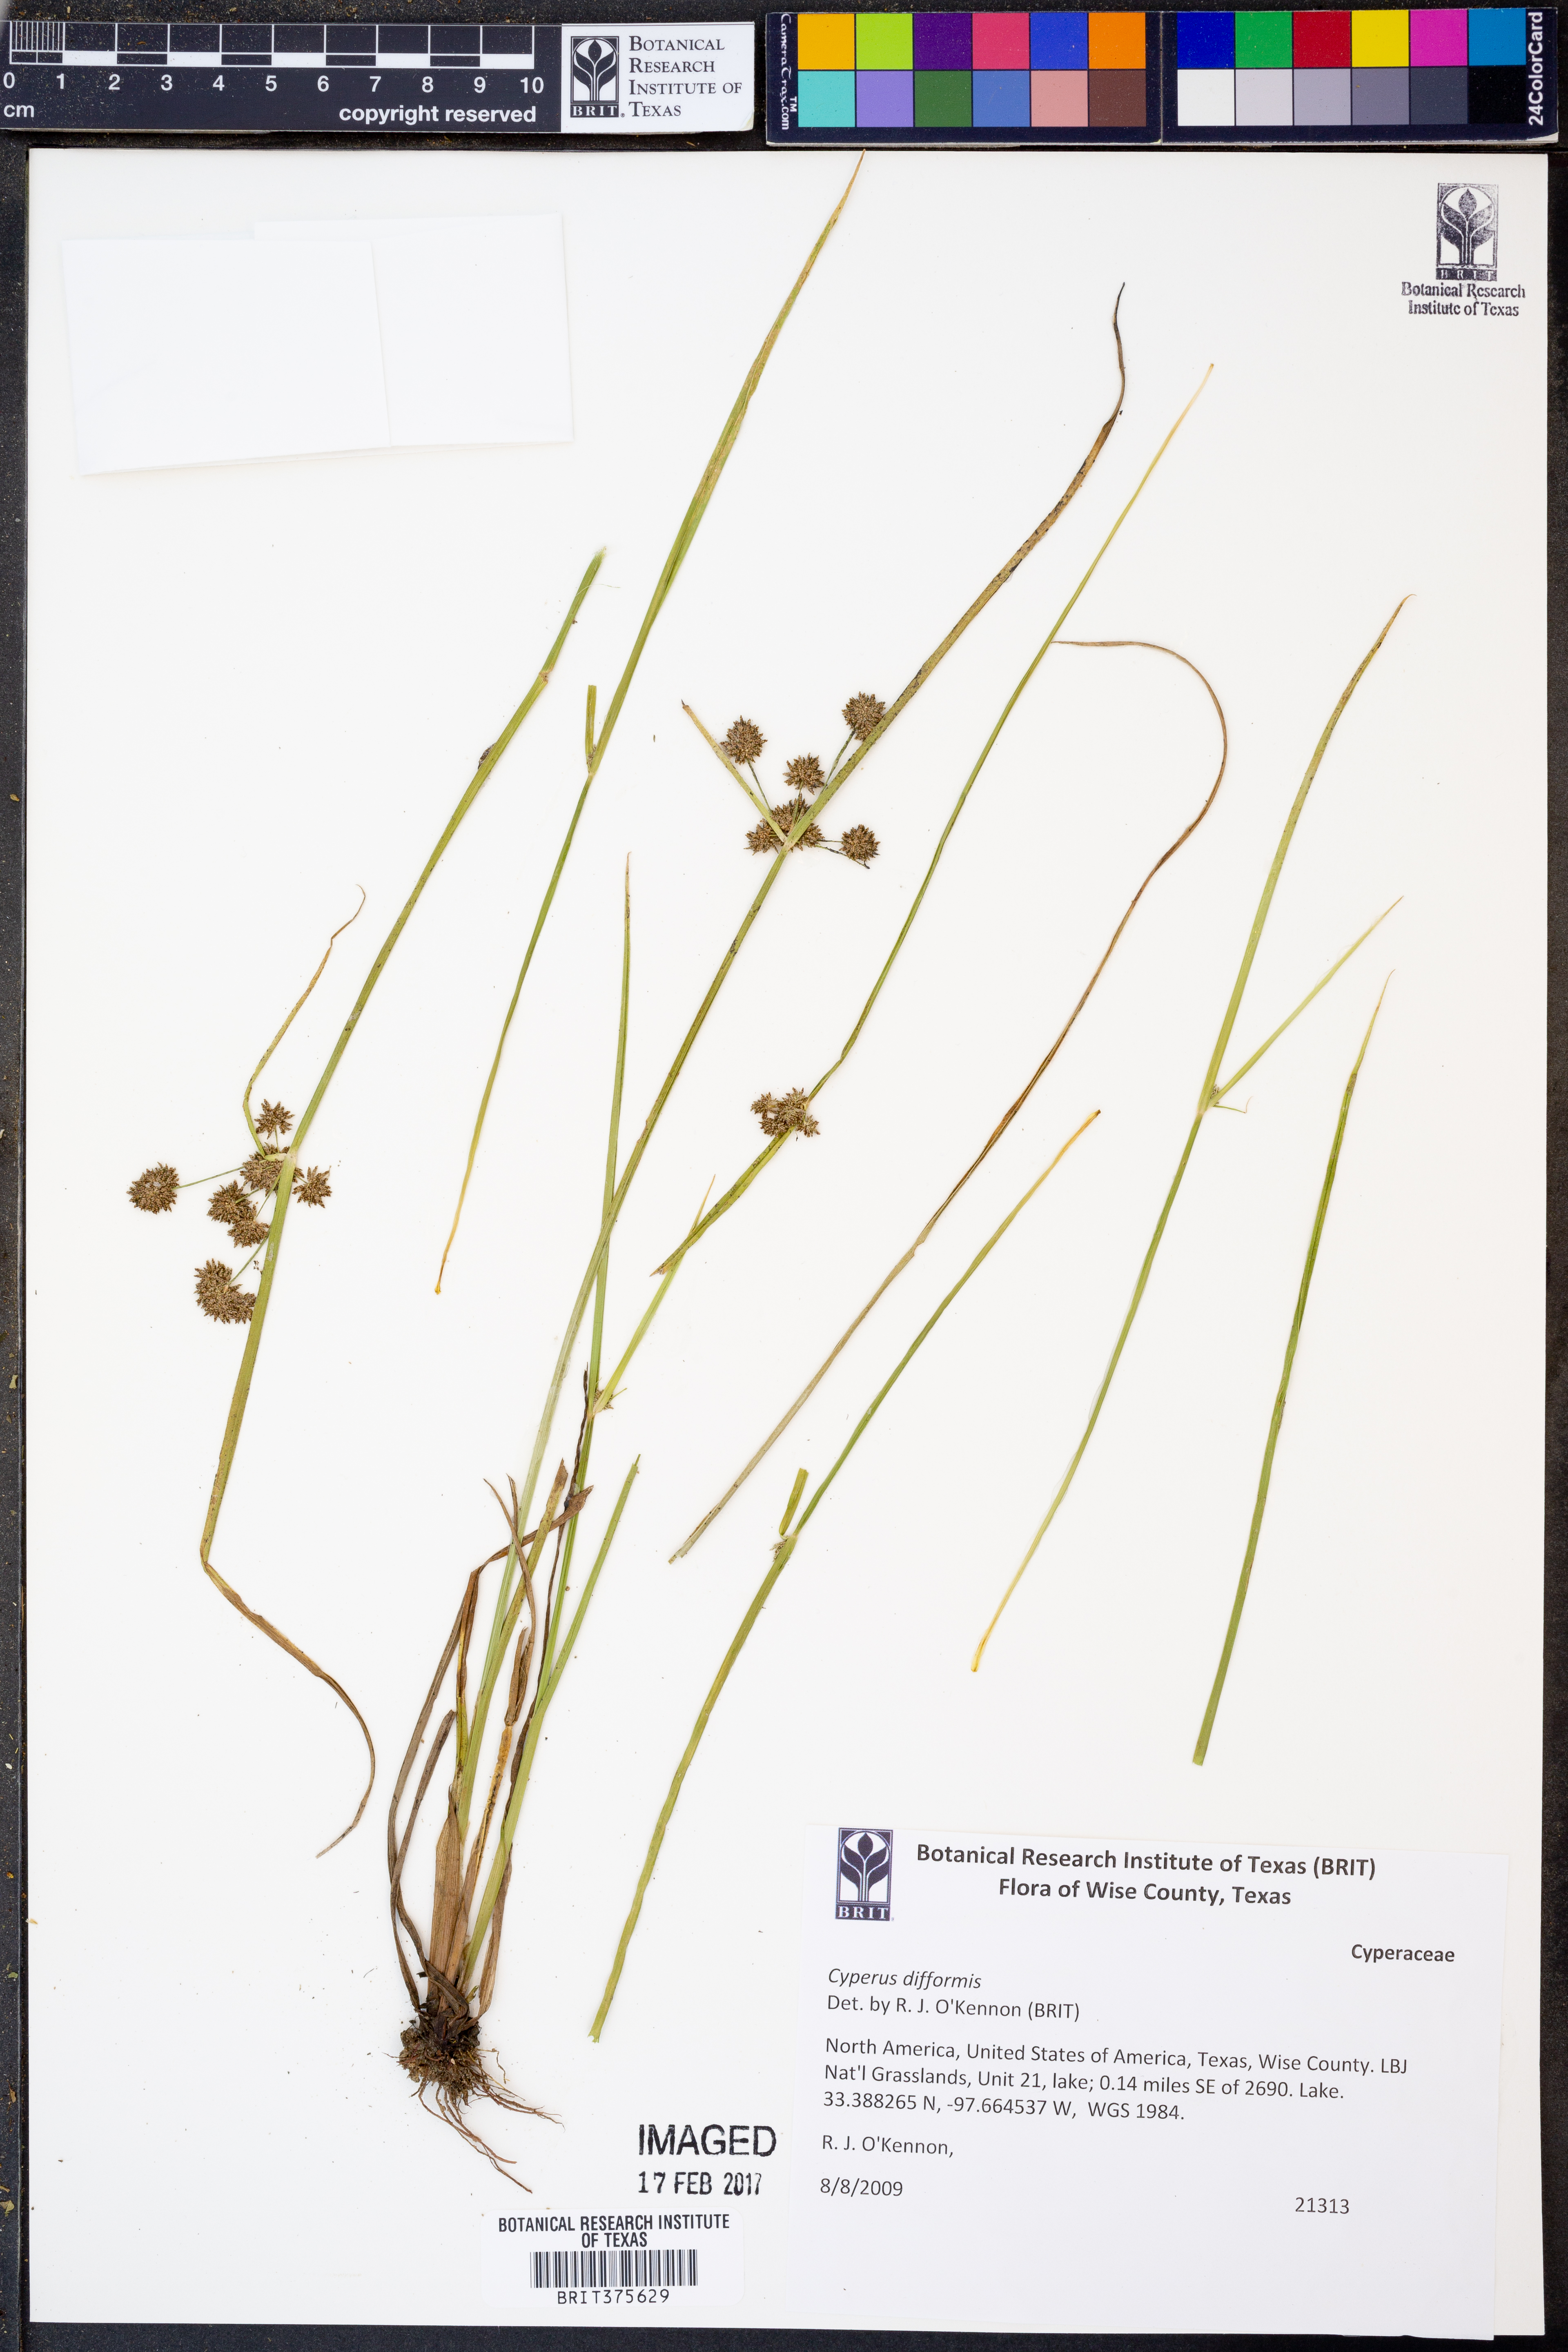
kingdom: Plantae
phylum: Tracheophyta
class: Liliopsida
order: Poales
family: Cyperaceae
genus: Cyperus
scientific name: Cyperus difformis
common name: Variable flatsedge
